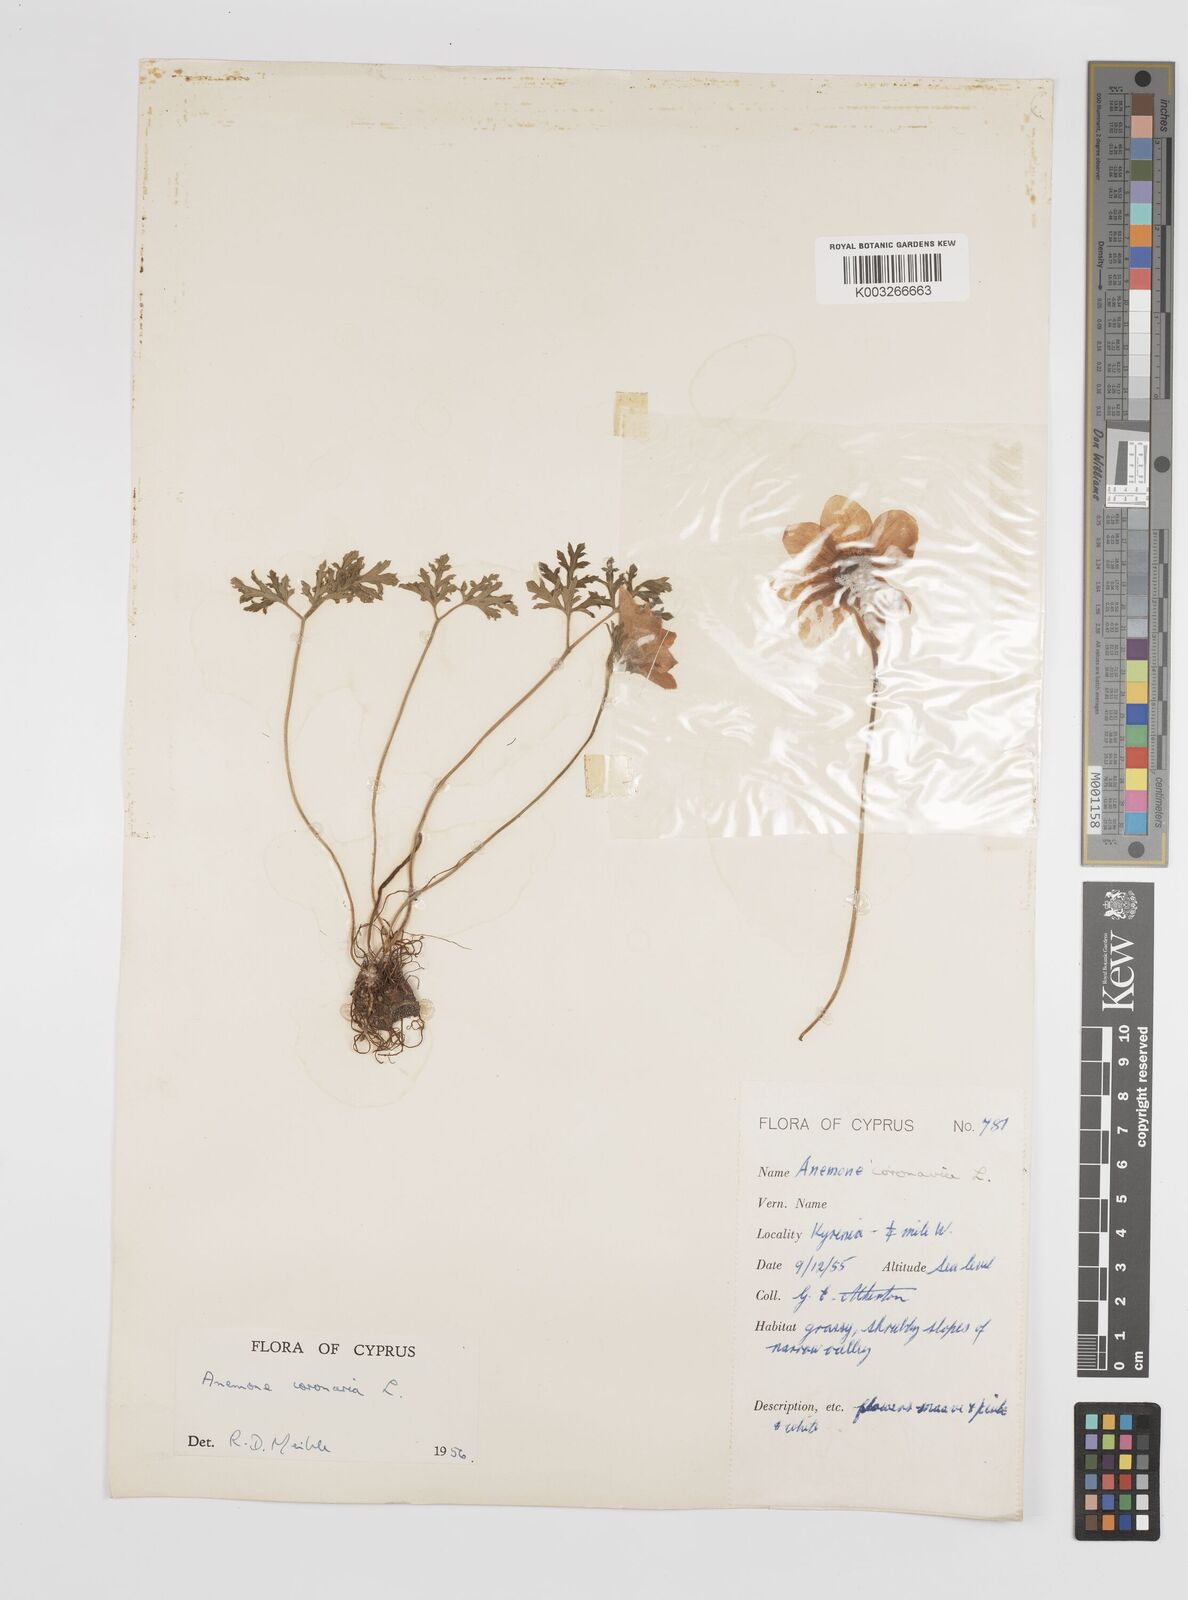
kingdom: Plantae
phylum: Tracheophyta
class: Magnoliopsida
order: Ranunculales
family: Ranunculaceae
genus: Anemone
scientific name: Anemone coronaria
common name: Poppy anemone
